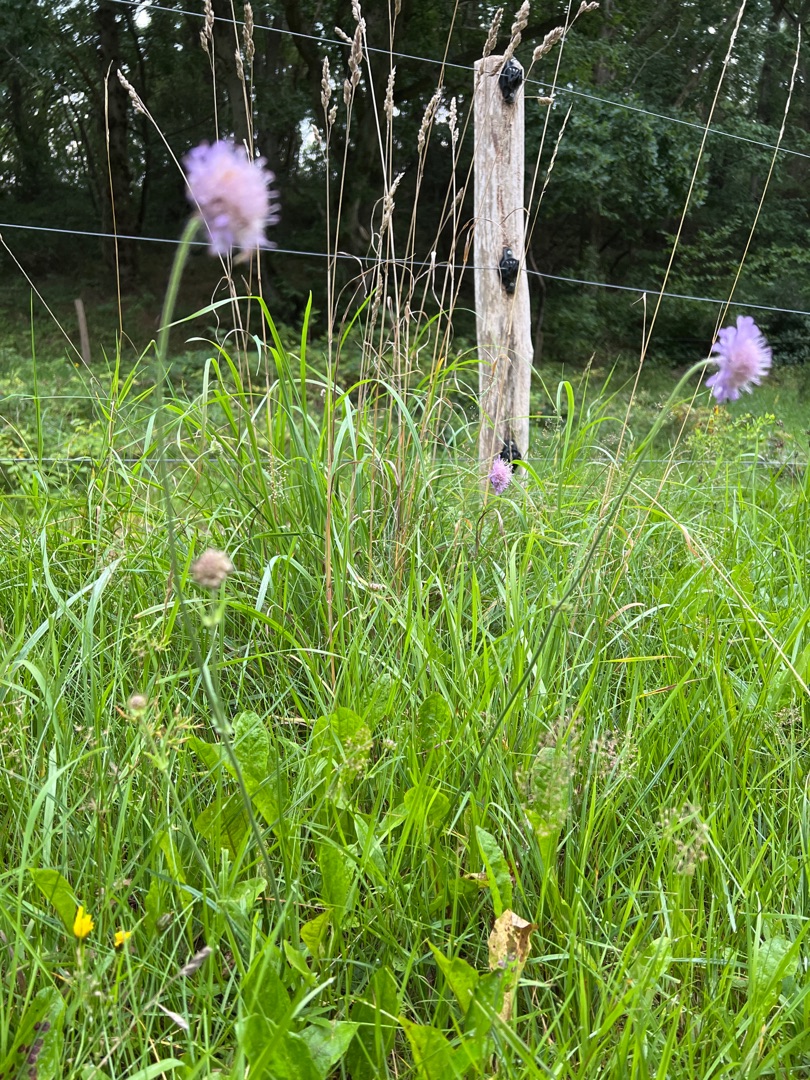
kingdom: Plantae
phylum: Tracheophyta
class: Magnoliopsida
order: Dipsacales
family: Caprifoliaceae
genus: Knautia
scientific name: Knautia arvensis
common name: Blåhat
